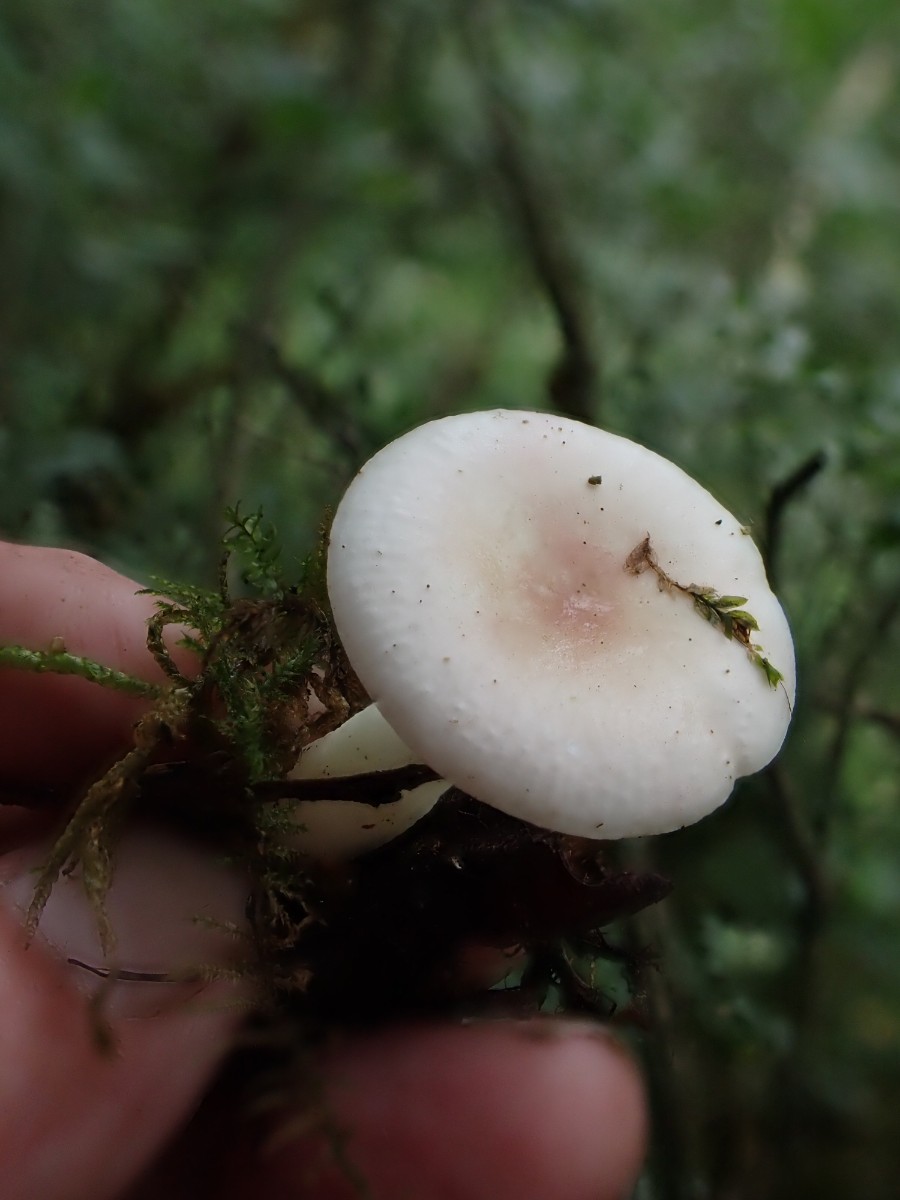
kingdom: Fungi
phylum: Basidiomycota
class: Agaricomycetes
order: Russulales
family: Russulaceae
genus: Russula
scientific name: Russula betularum
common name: bleg gift-skørhat
